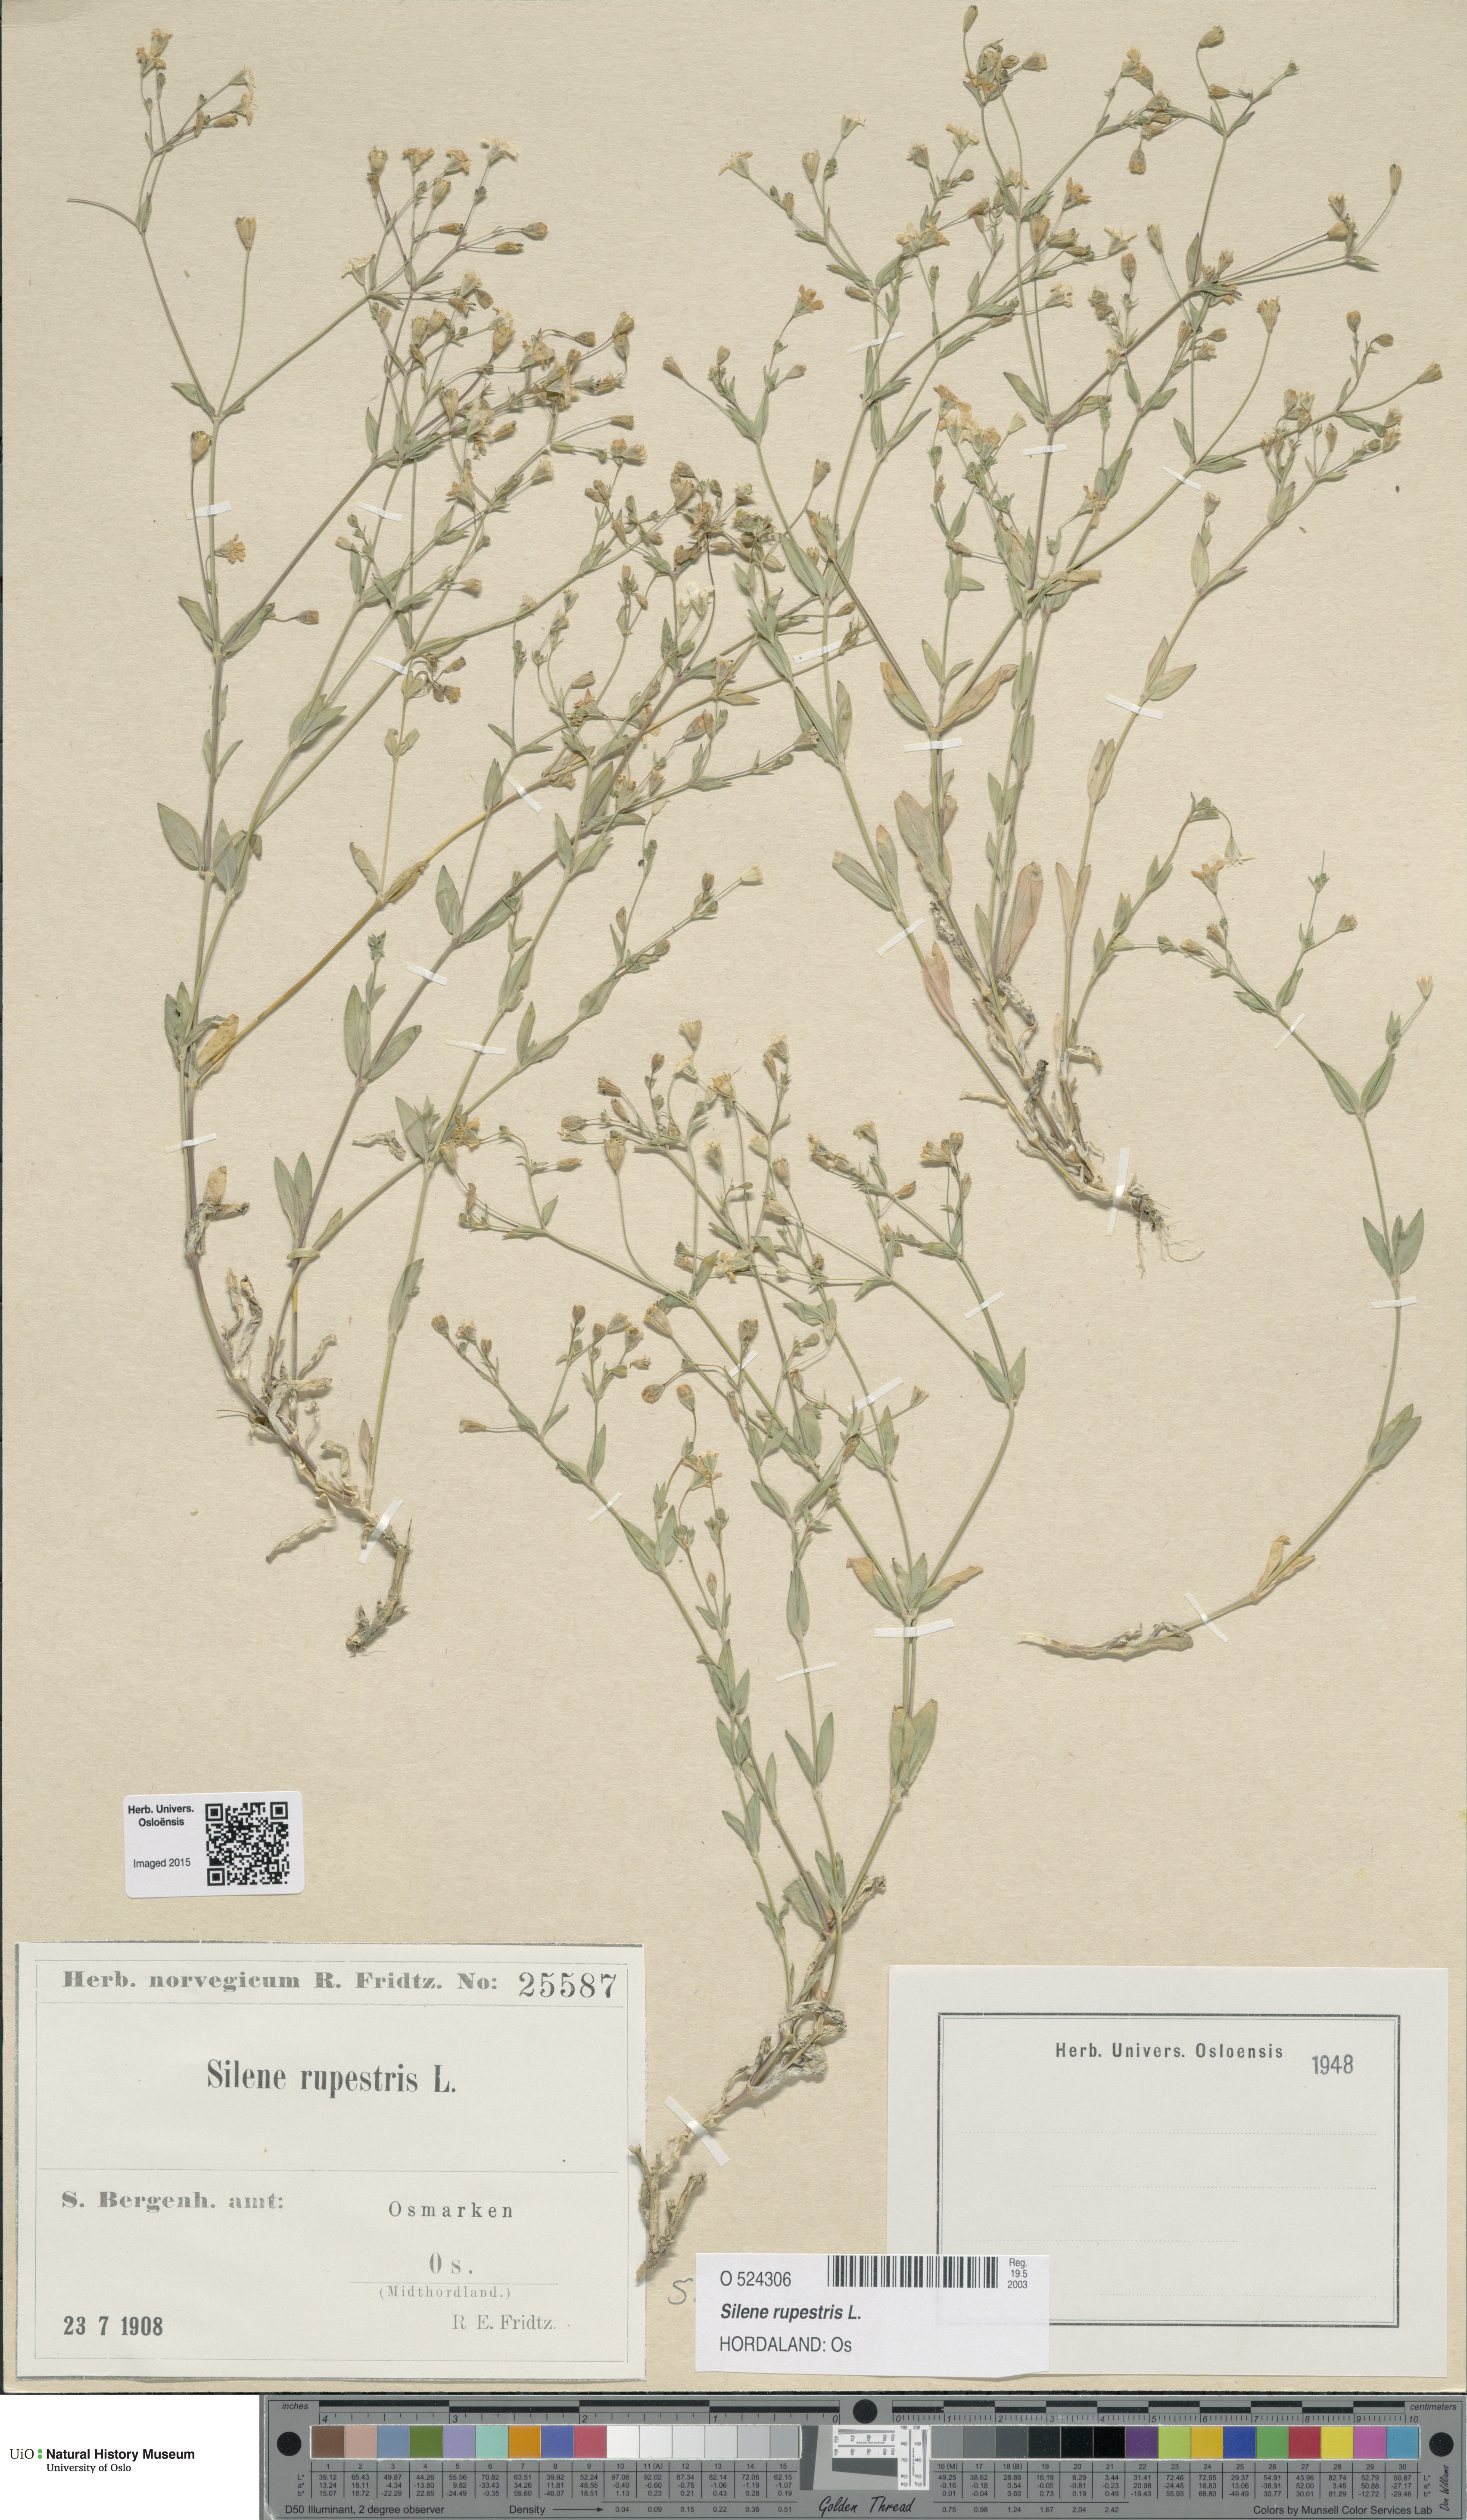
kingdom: Plantae
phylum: Tracheophyta
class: Magnoliopsida
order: Caryophyllales
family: Caryophyllaceae
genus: Atocion
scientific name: Atocion rupestre
